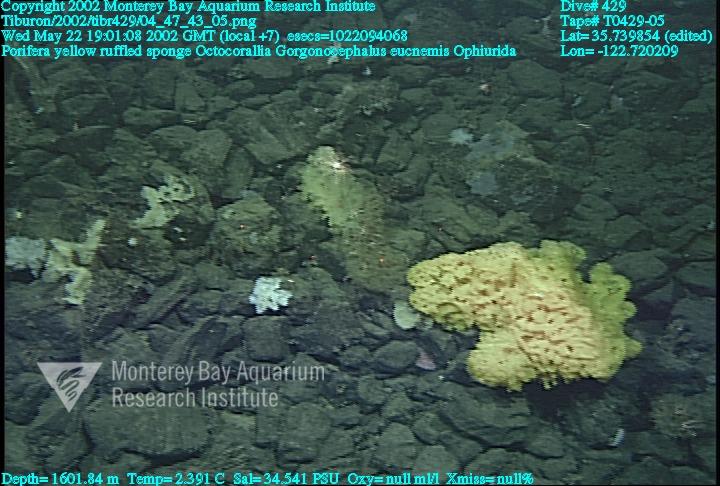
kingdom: Animalia
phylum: Porifera
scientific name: Porifera
